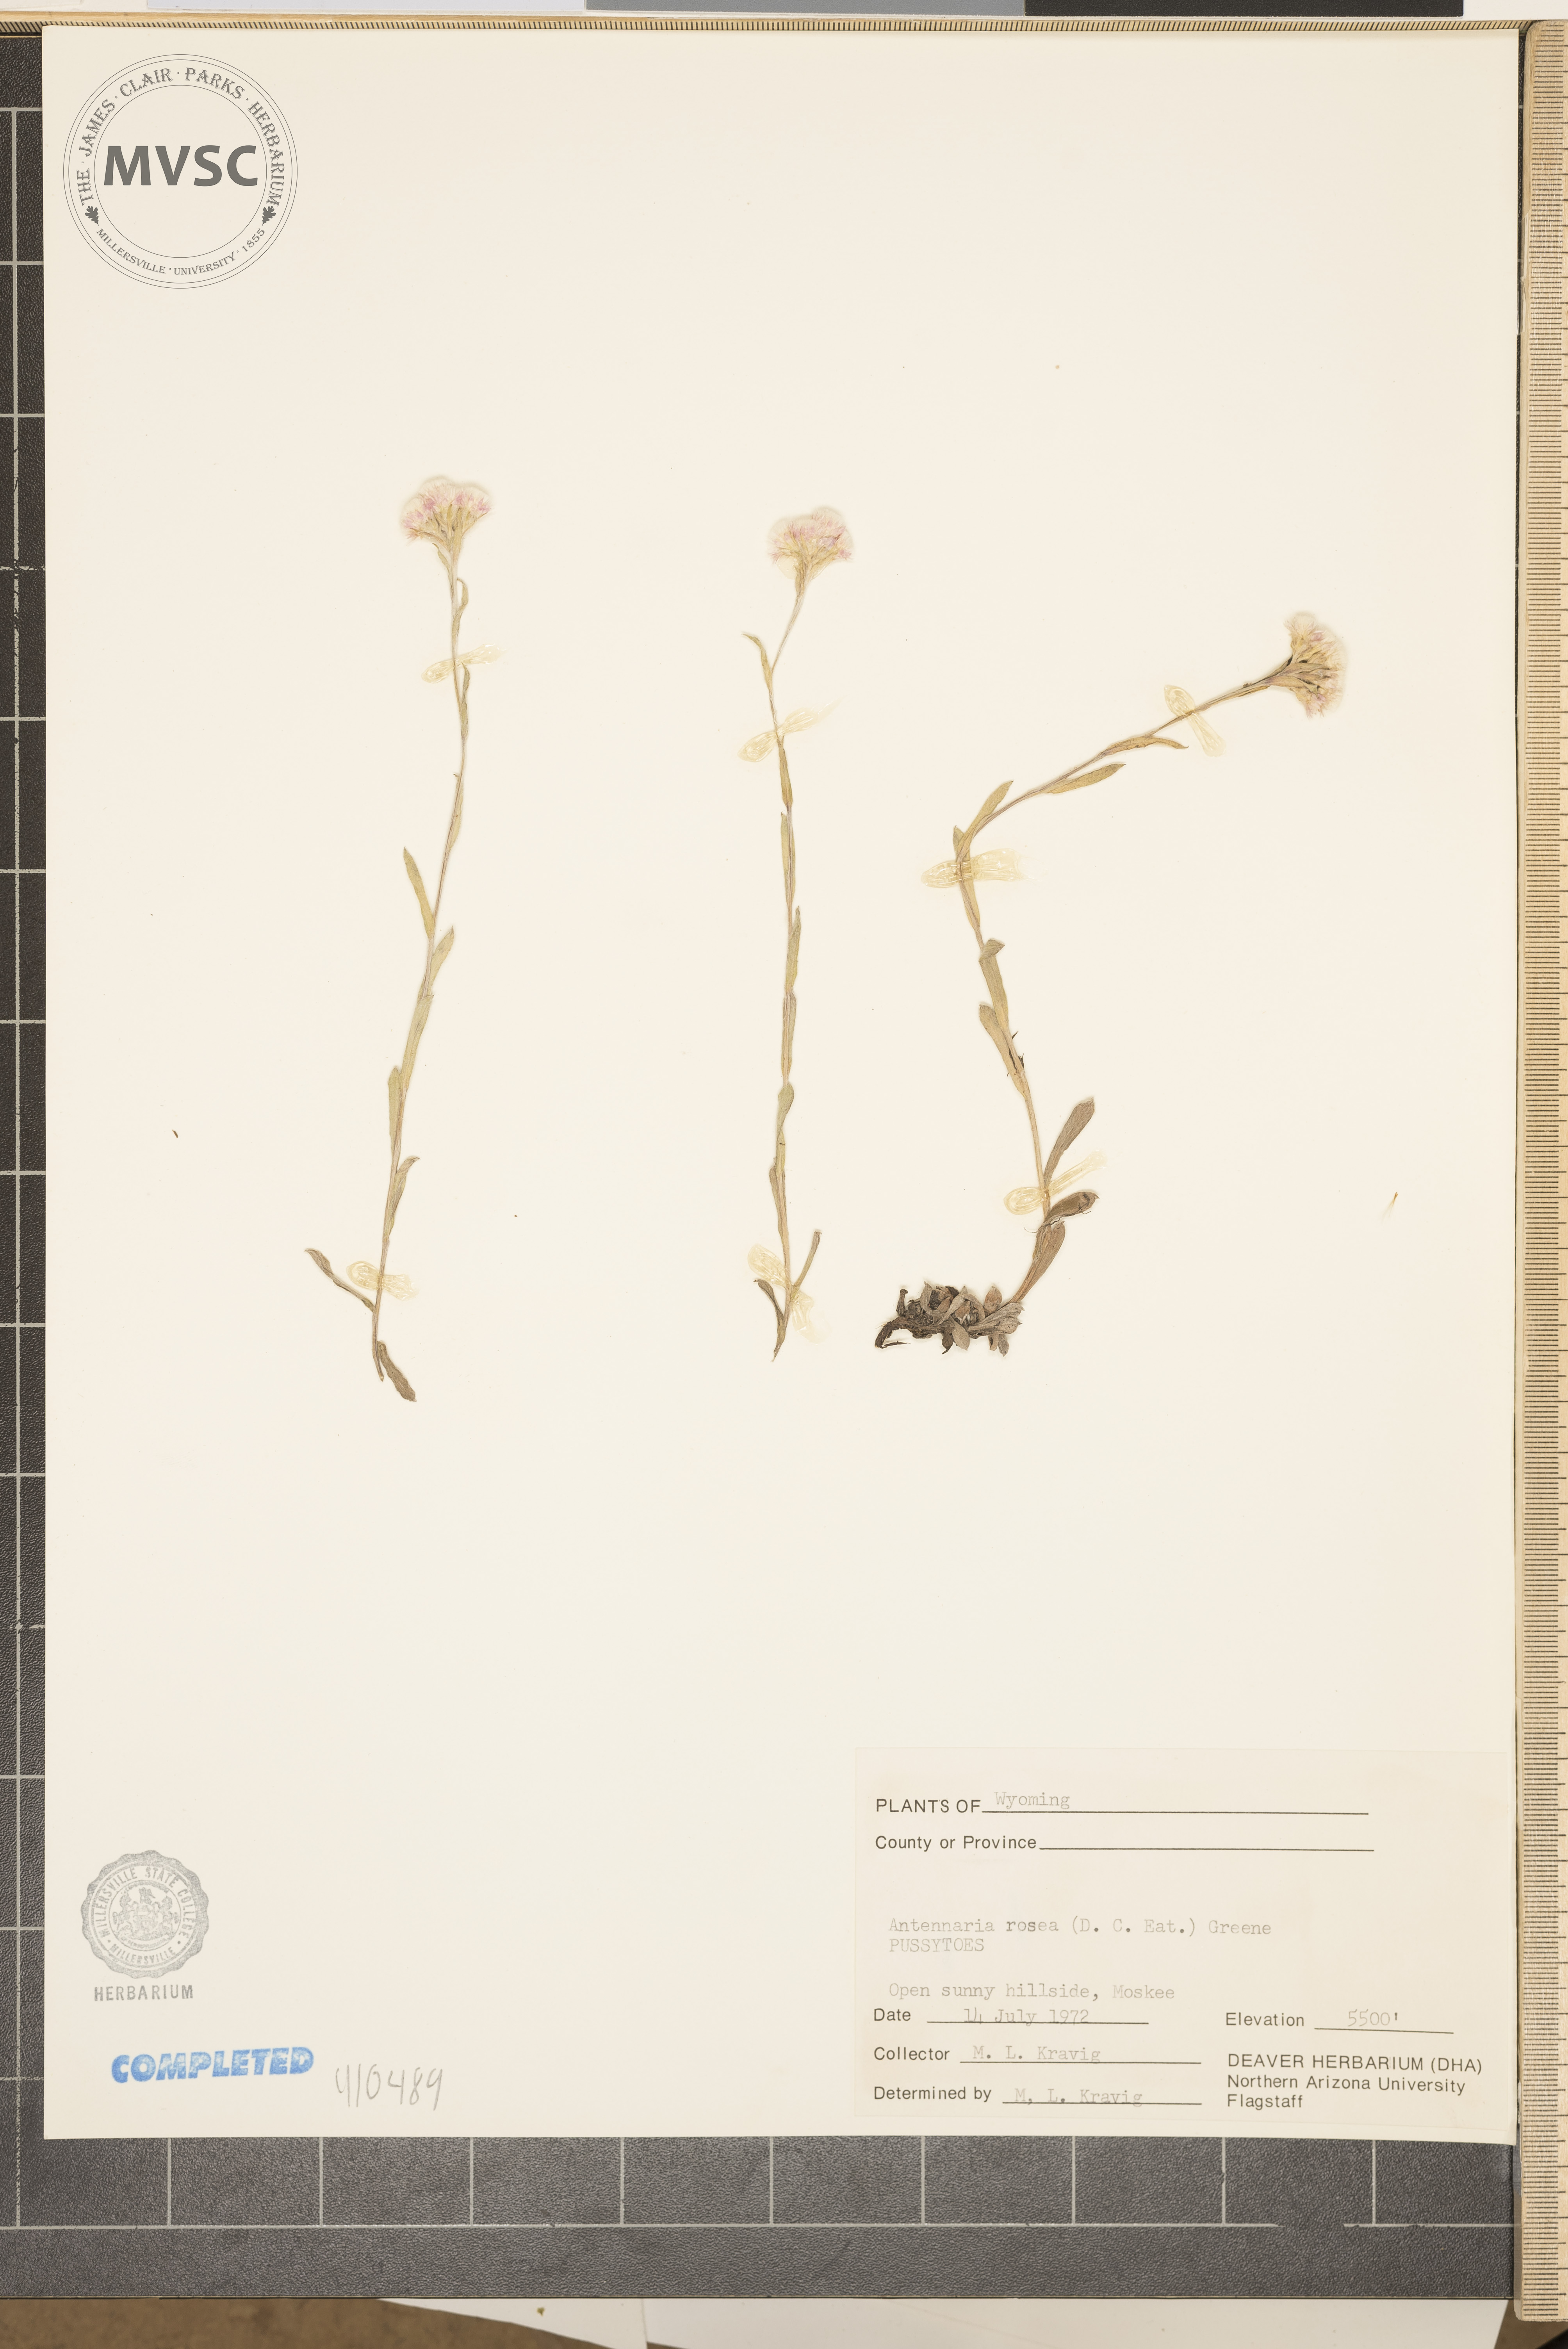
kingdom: Plantae
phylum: Tracheophyta
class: Magnoliopsida
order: Asterales
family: Asteraceae
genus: Antennaria
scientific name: Antennaria rosea
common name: Rosy pussytoes
